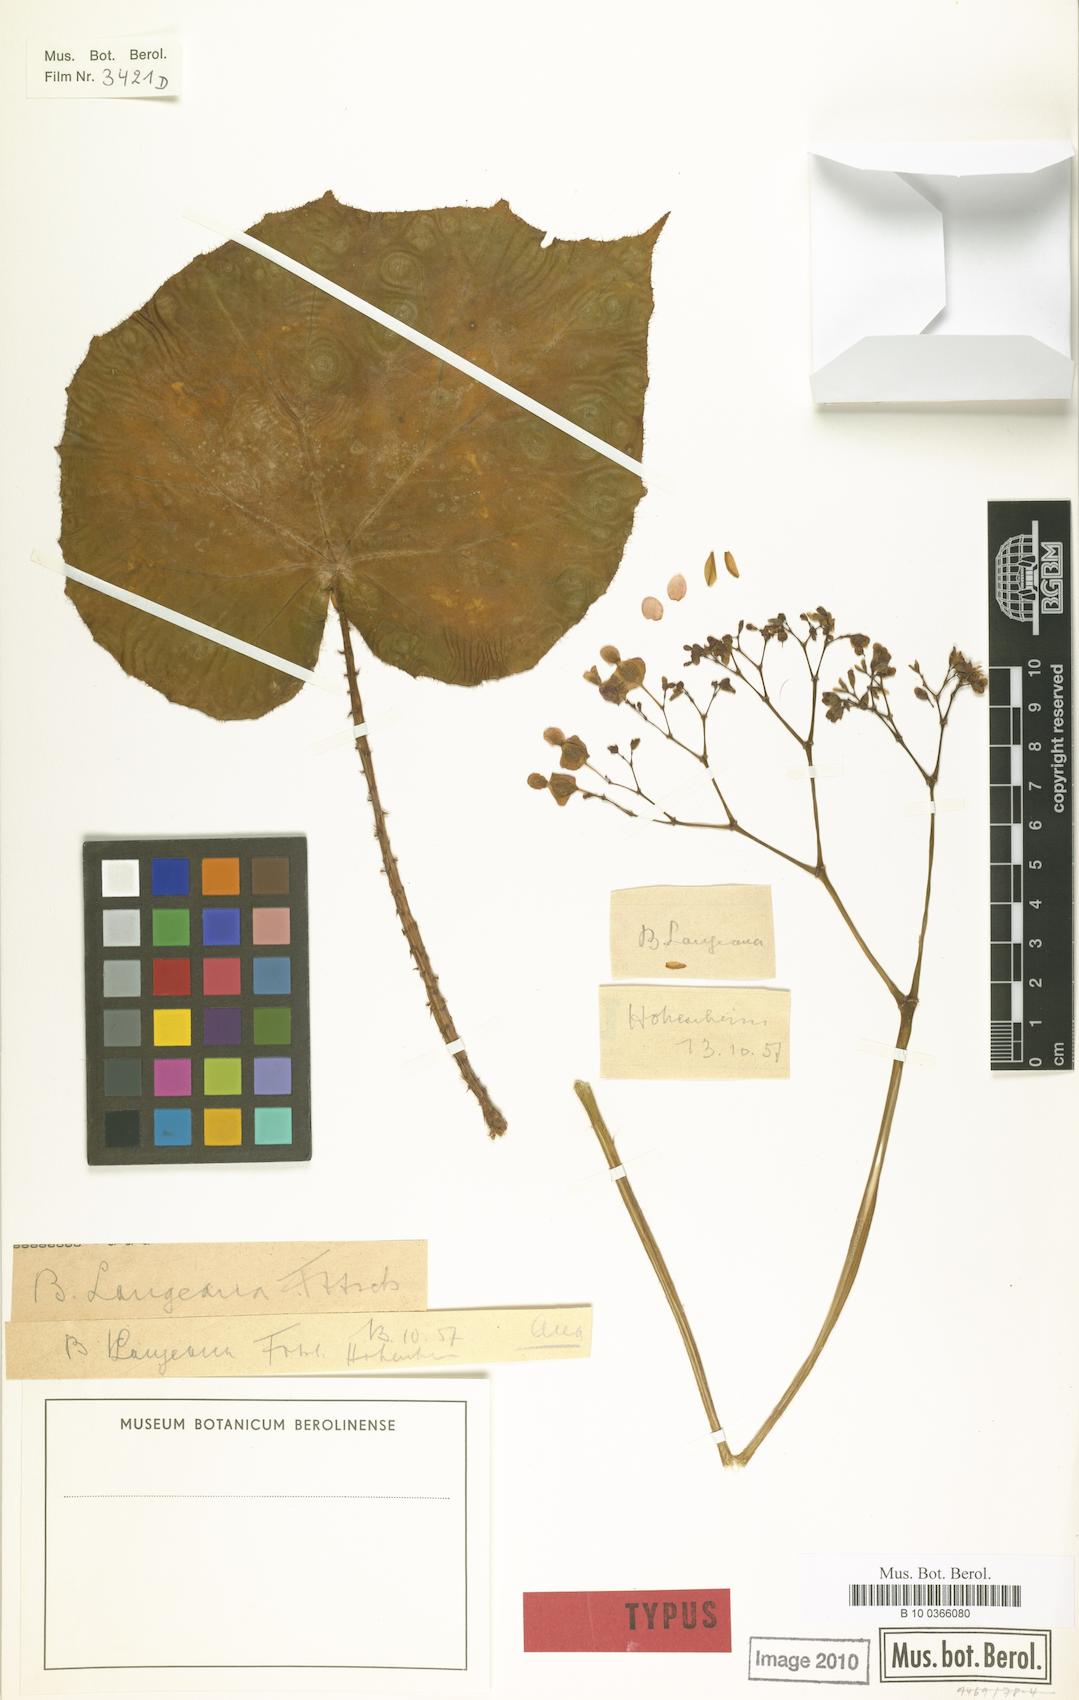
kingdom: Plantae
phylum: Tracheophyta
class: Magnoliopsida
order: Cucurbitales
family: Begoniaceae
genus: Begonia
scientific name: Begonia langeana
